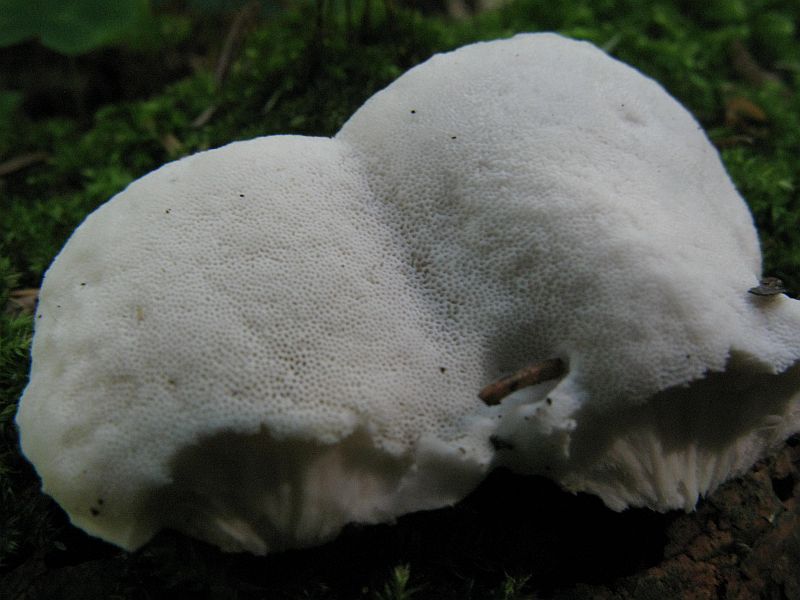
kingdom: Fungi
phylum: Basidiomycota
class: Agaricomycetes
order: Polyporales
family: Dacryobolaceae
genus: Postia
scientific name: Postia tephroleuca
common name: grålig kødporesvamp
